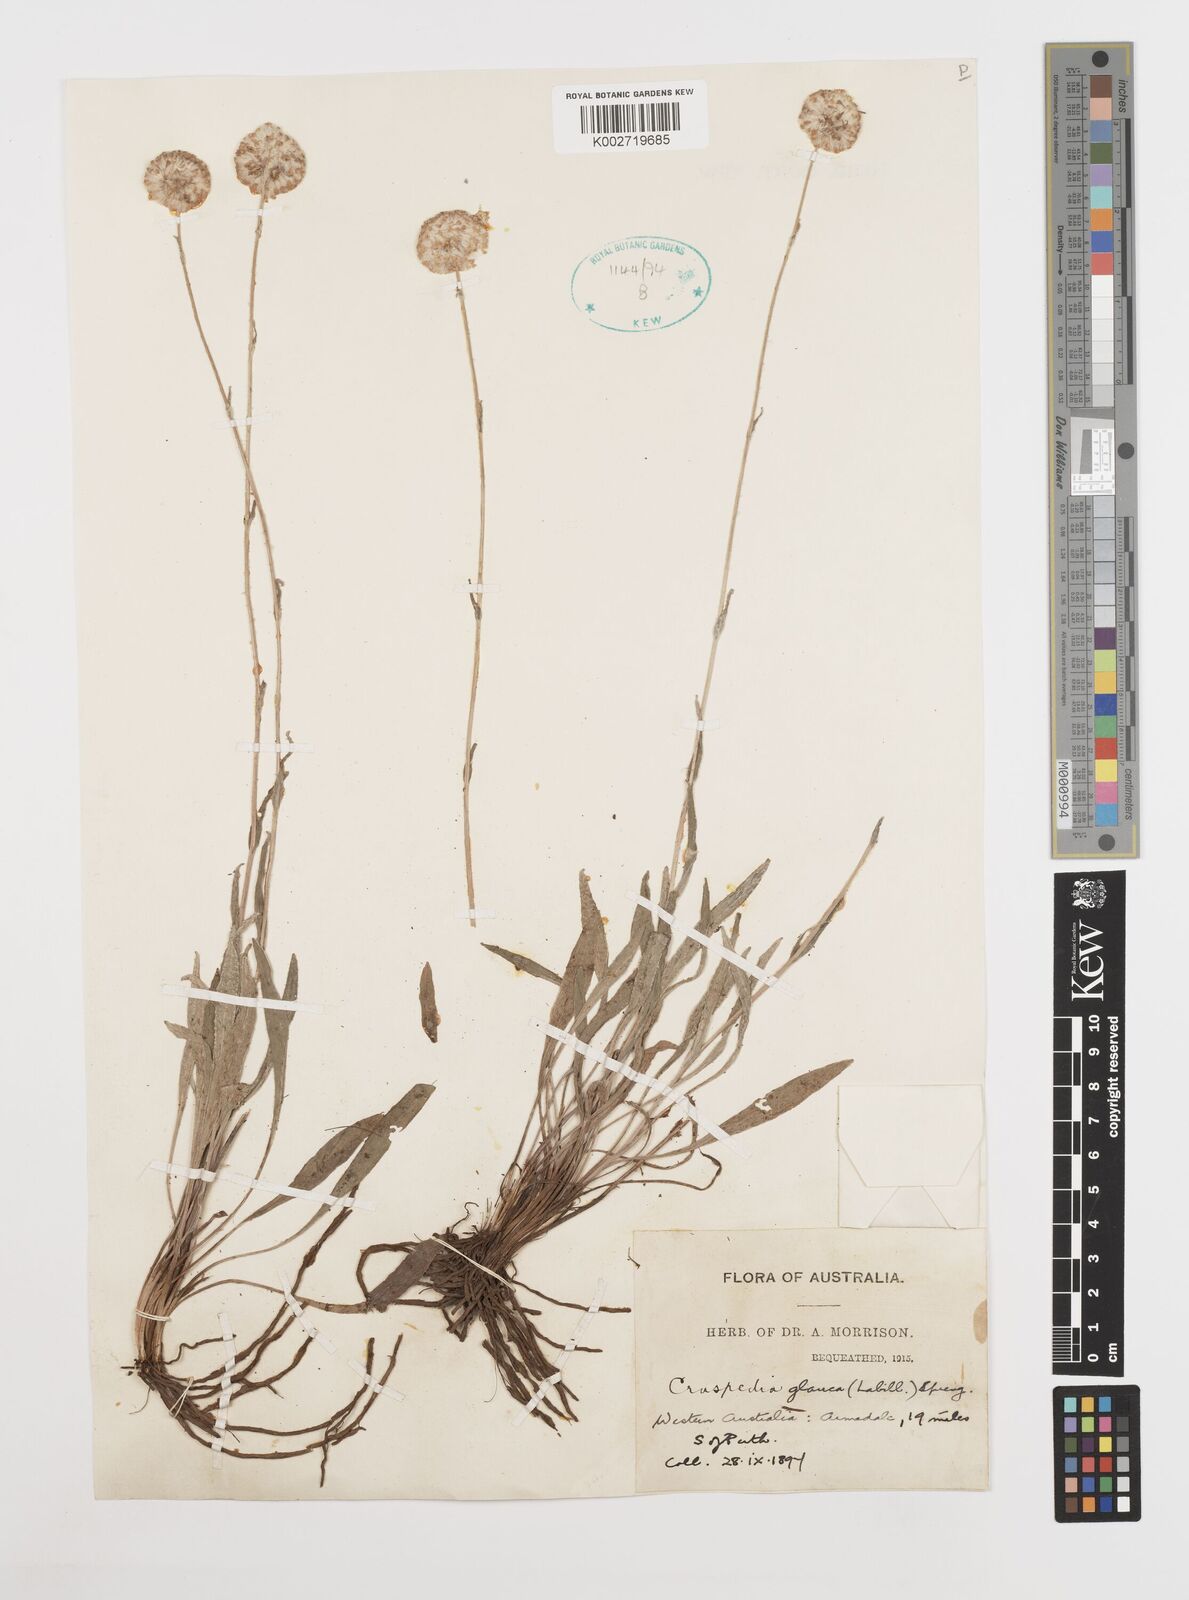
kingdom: Plantae
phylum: Tracheophyta
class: Magnoliopsida
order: Asterales
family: Asteraceae
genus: Craspedia
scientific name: Craspedia glauca
